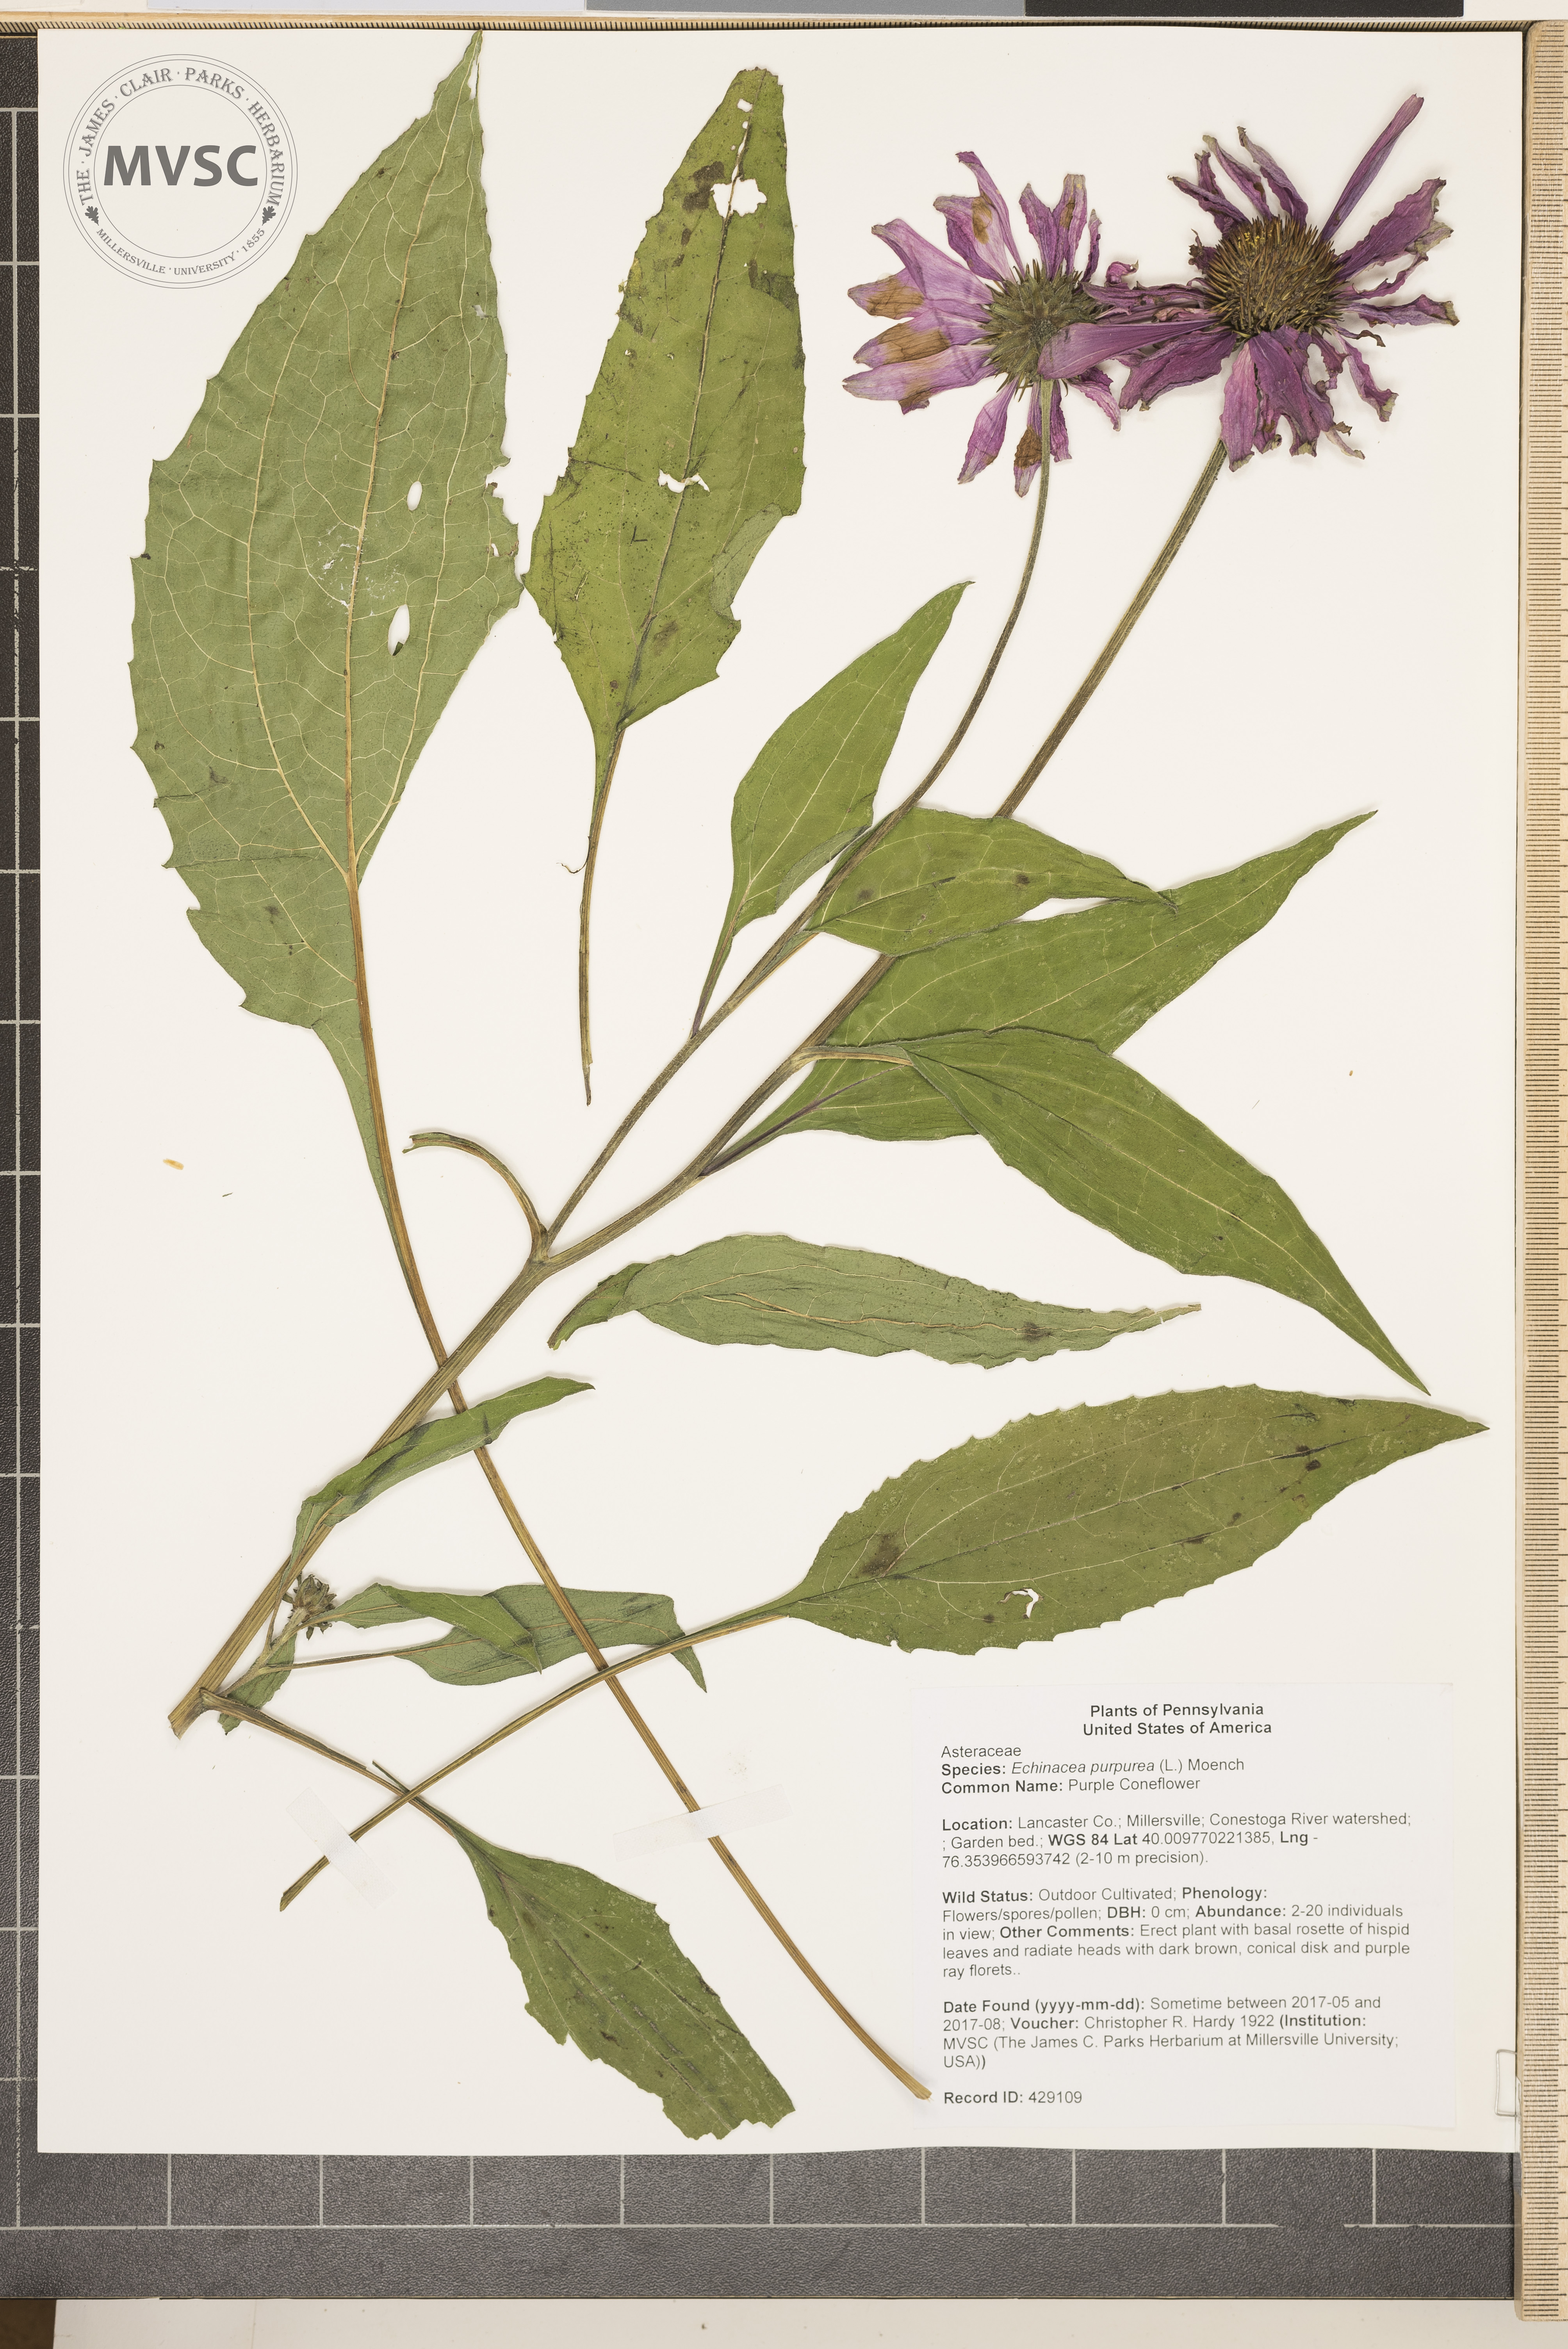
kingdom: Plantae
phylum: Tracheophyta
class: Magnoliopsida
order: Asterales
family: Asteraceae
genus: Echinacea
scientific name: Echinacea purpurea
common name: Purple Coneflower
